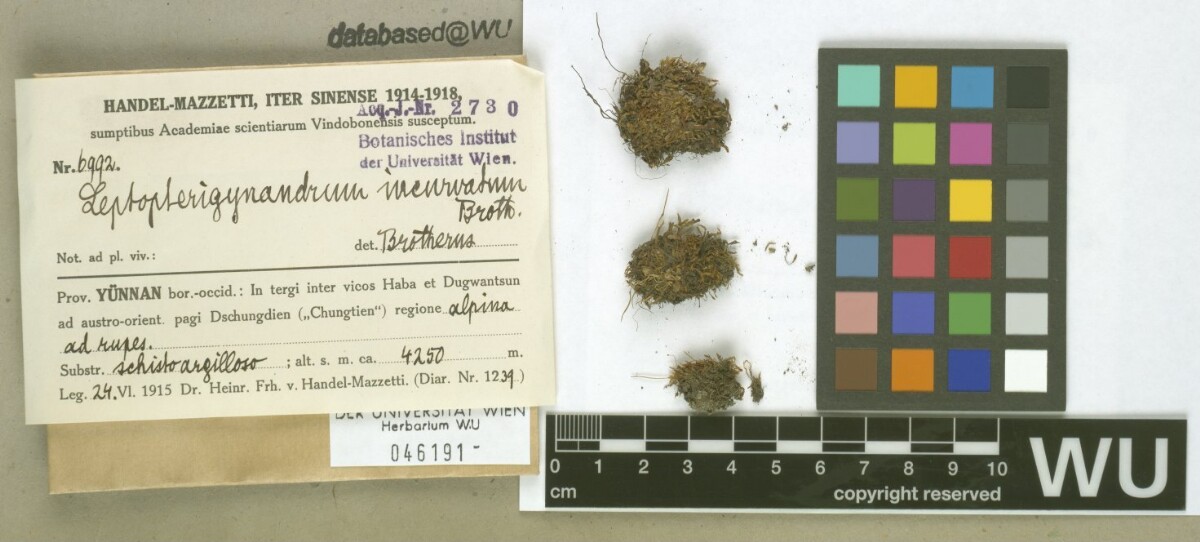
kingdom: Plantae
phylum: Bryophyta
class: Bryopsida
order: Hypnales
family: Taxiphyllaceae
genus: Leptopterigynandrum
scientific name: Leptopterigynandrum incurvatum
